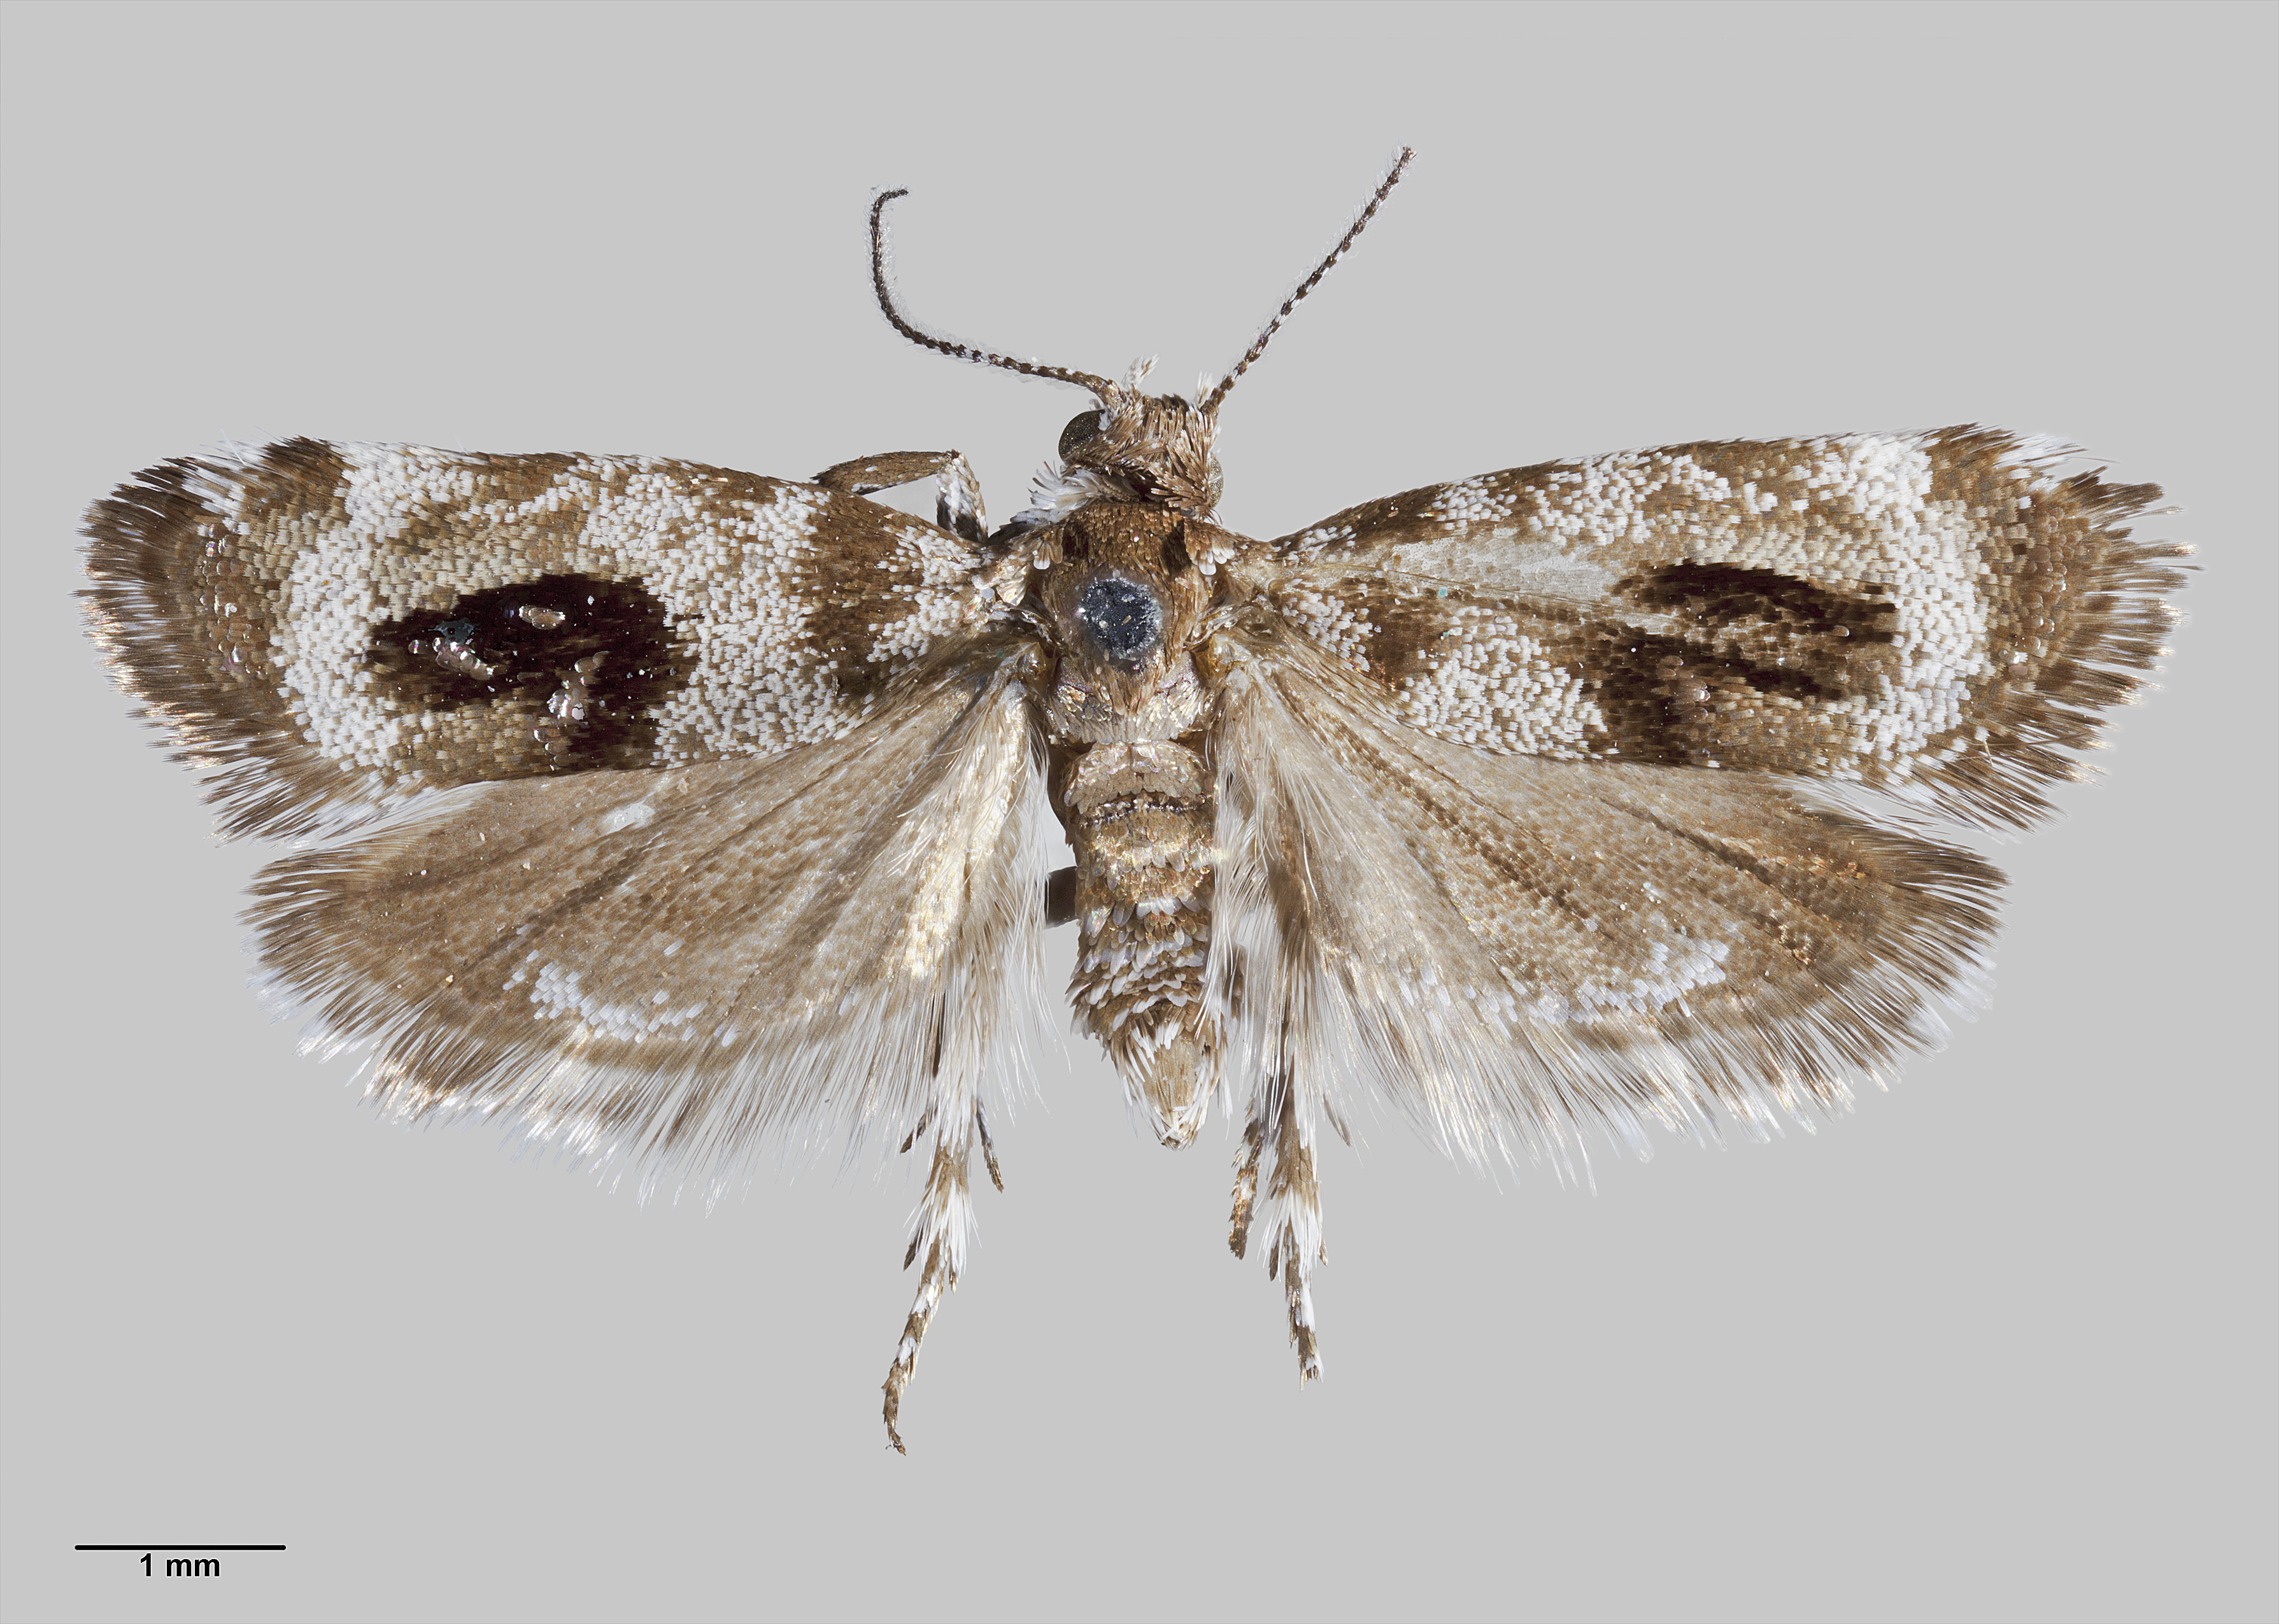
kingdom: Animalia
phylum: Arthropoda
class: Insecta
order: Lepidoptera
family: Choreutidae
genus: Asterivora
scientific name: Asterivora inspoliata
